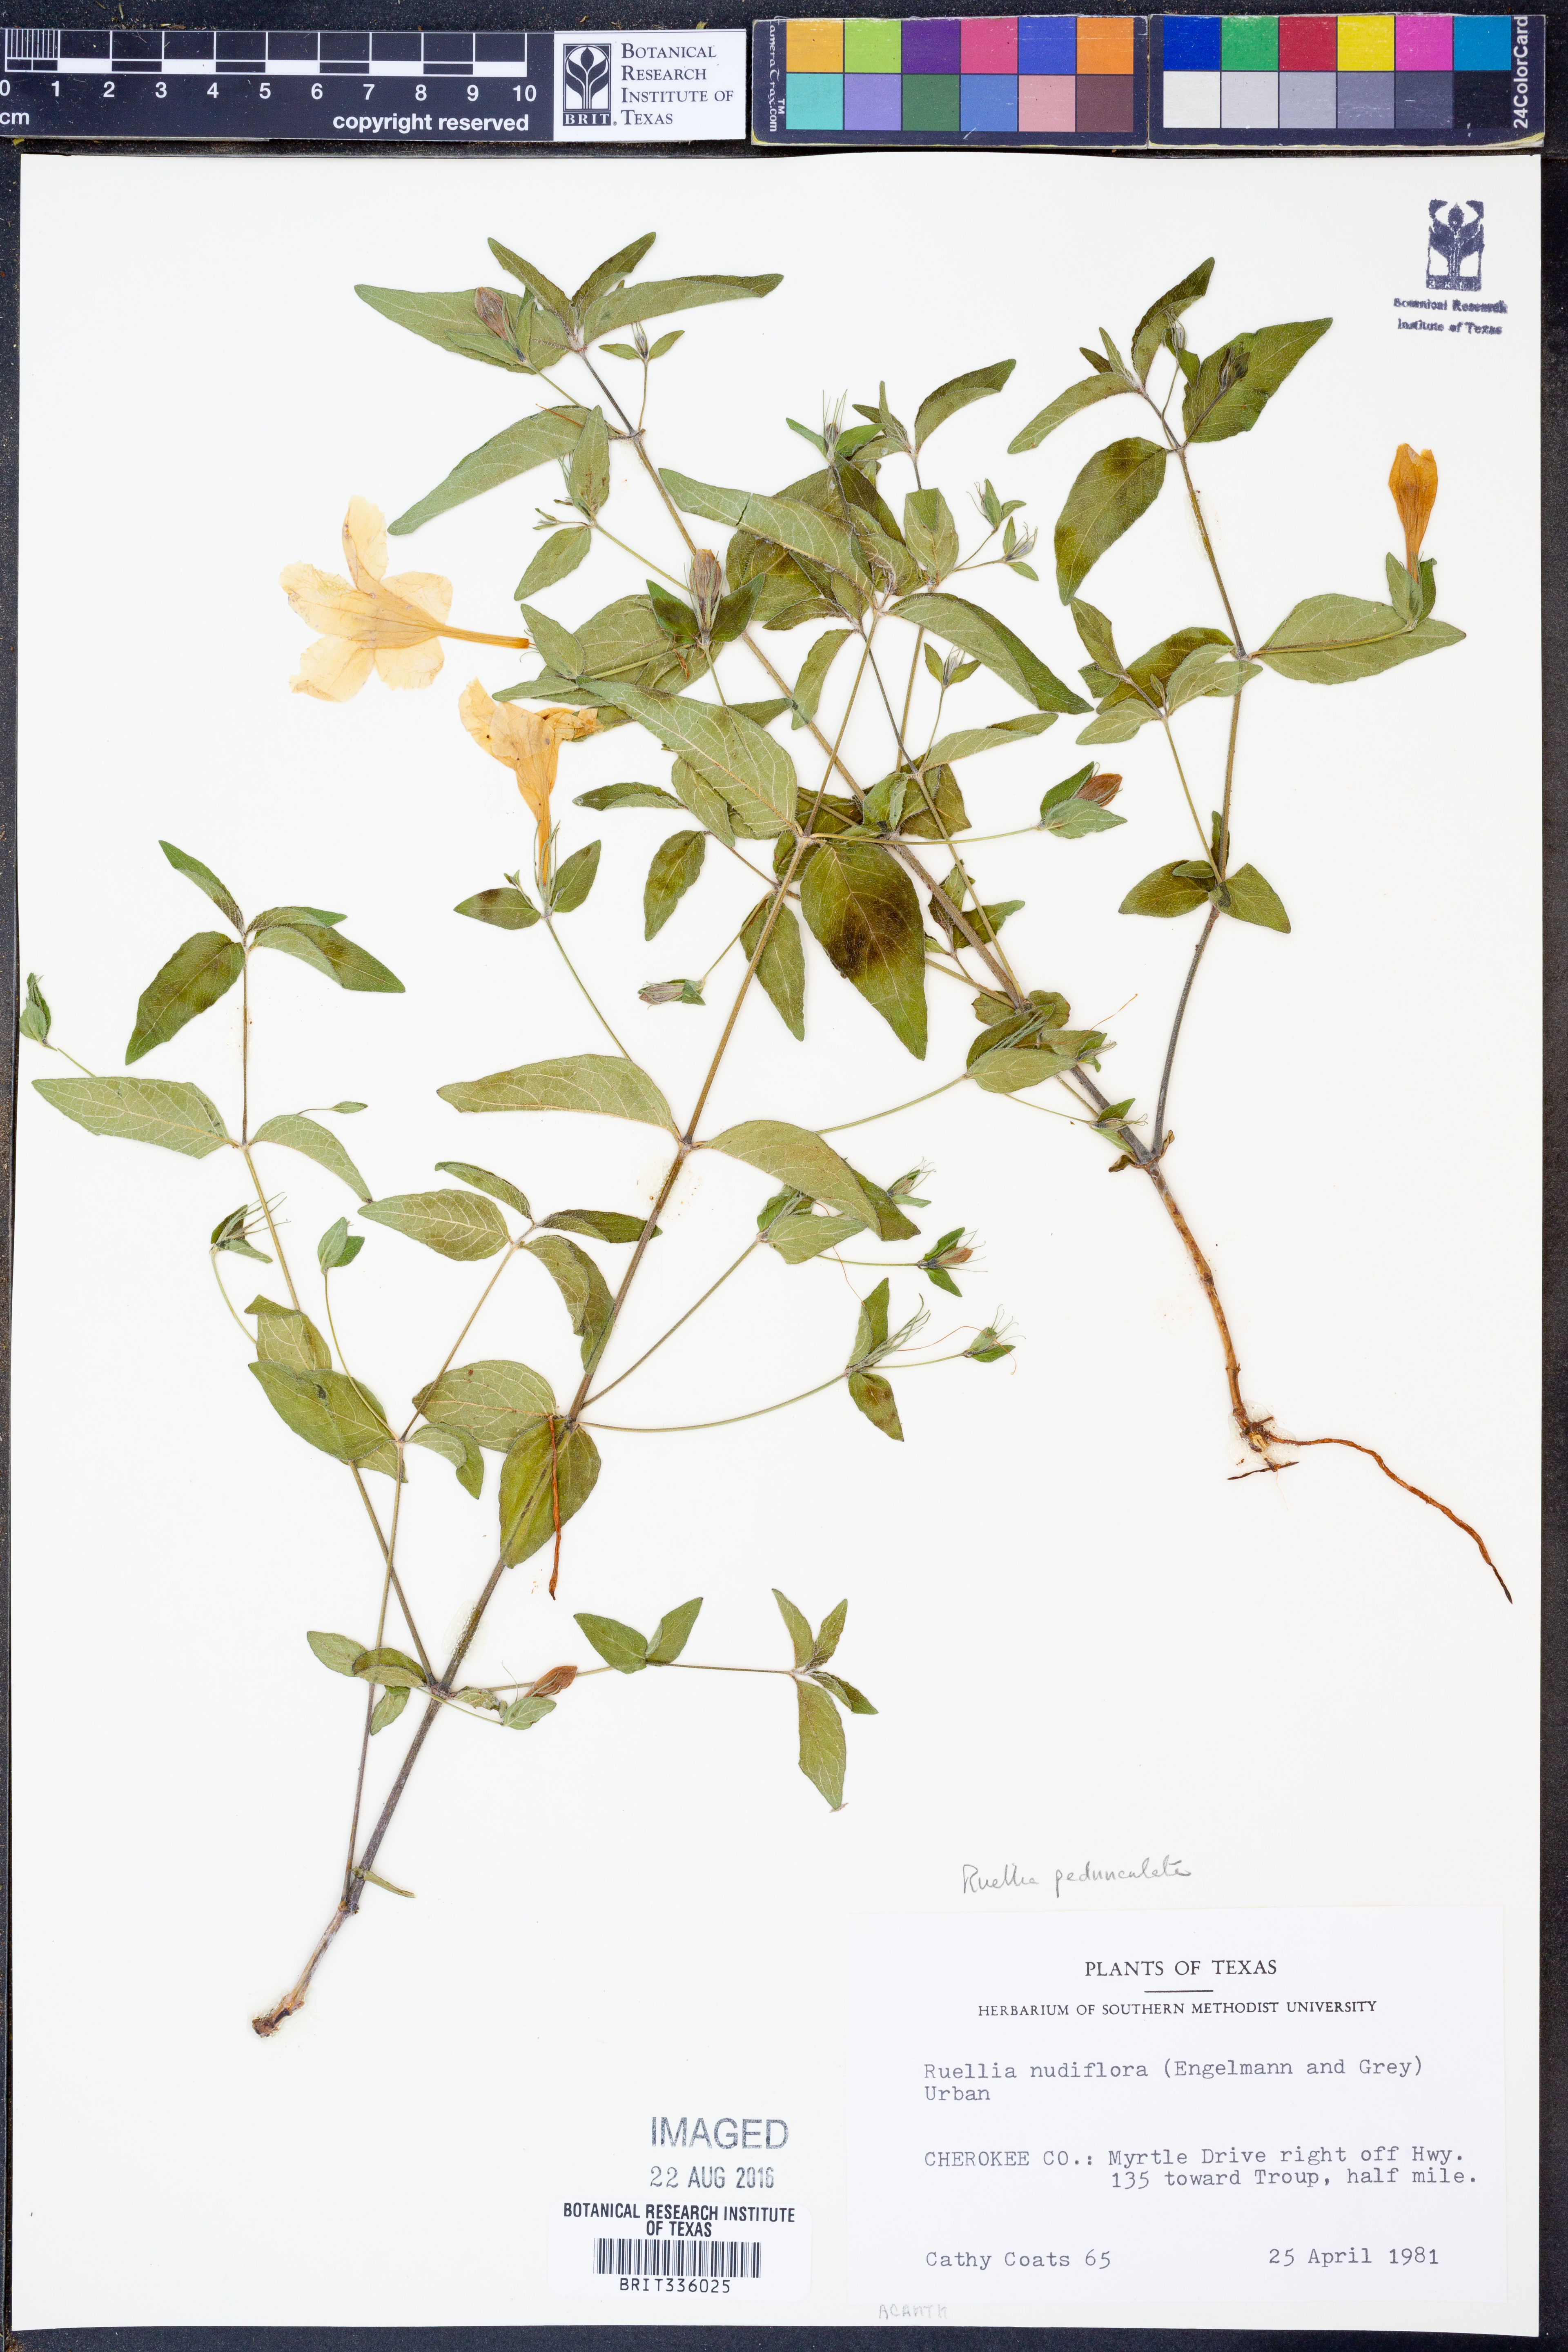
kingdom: Plantae
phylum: Tracheophyta
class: Magnoliopsida
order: Lamiales
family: Acanthaceae
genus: Ruellia
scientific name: Ruellia pedunculata
